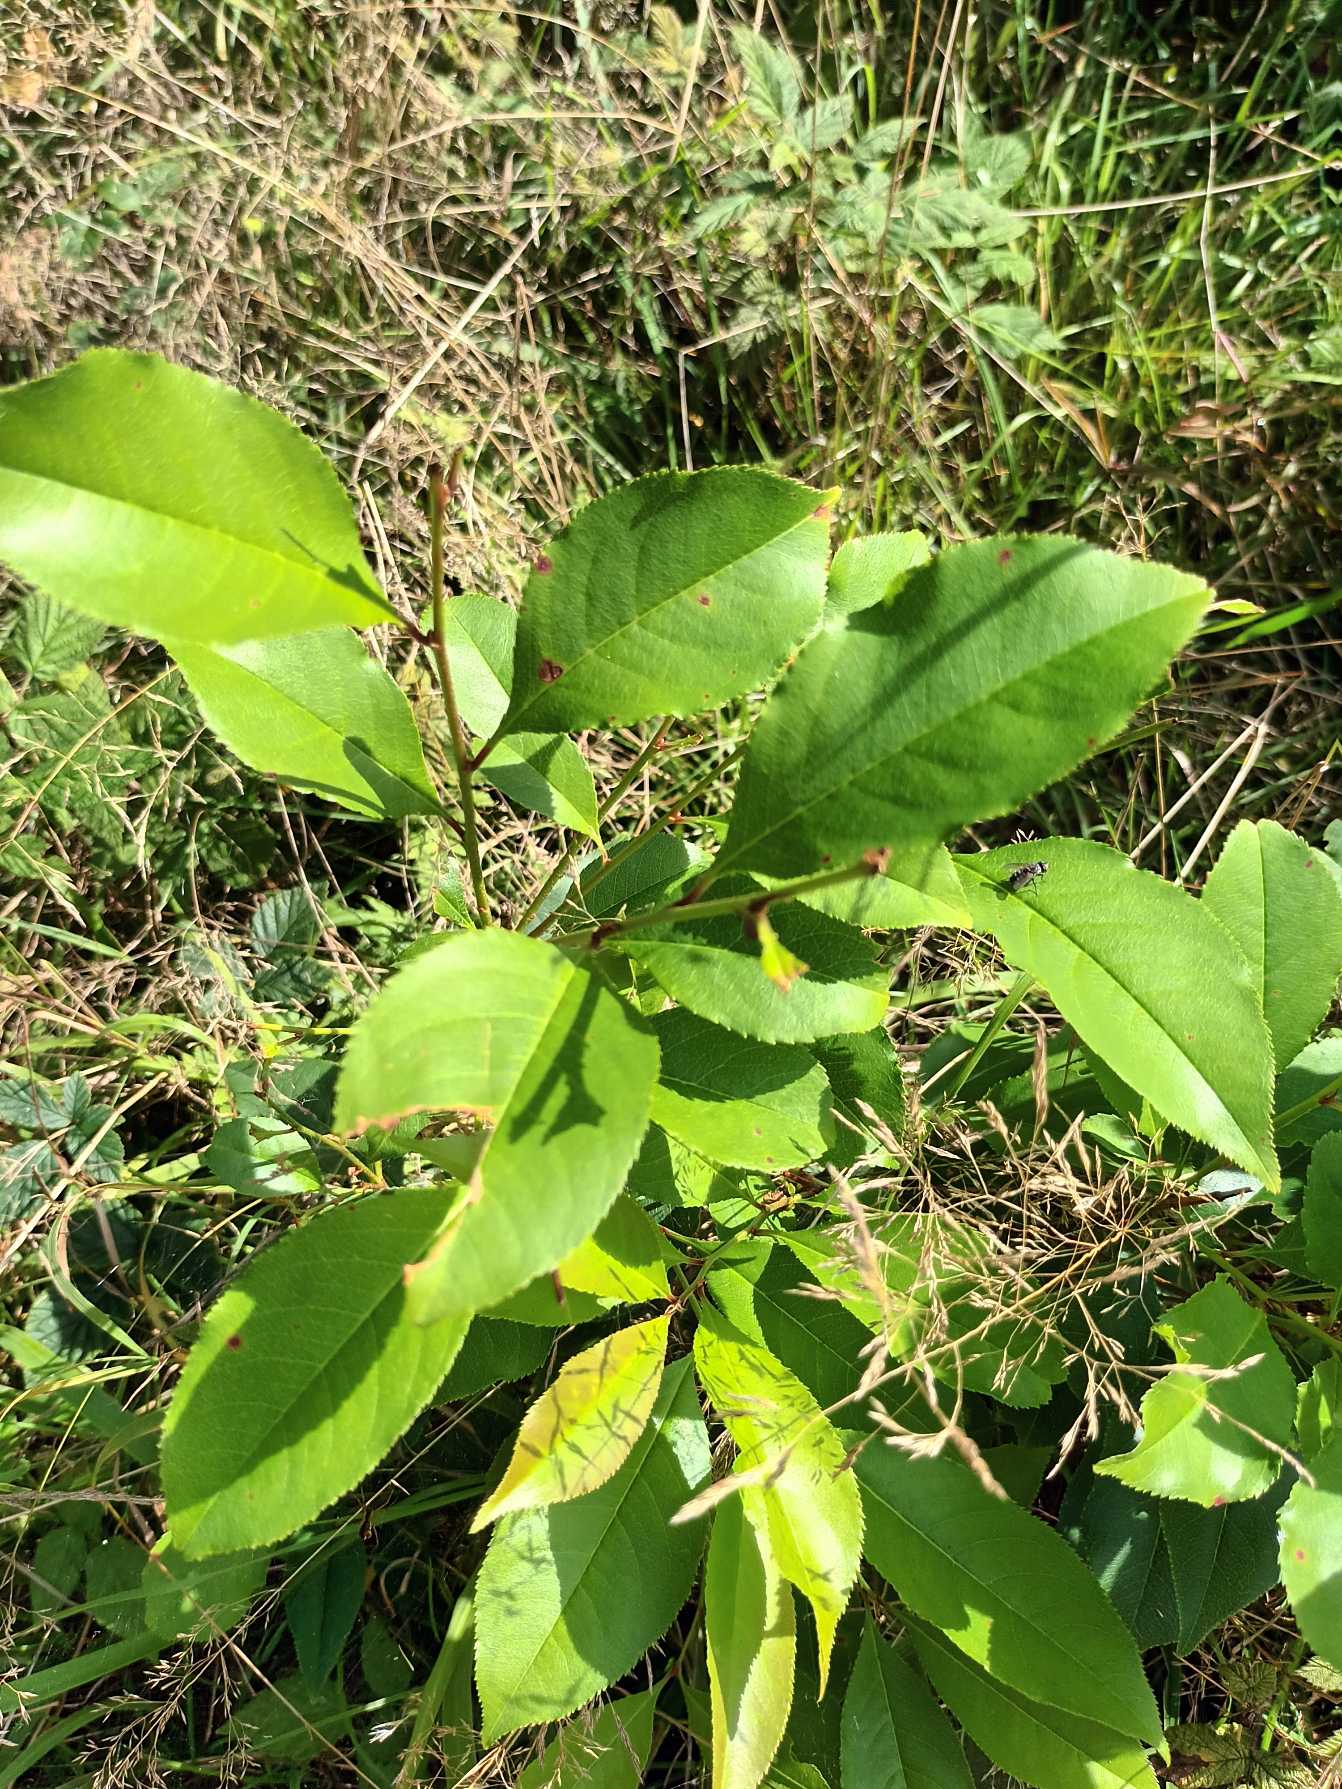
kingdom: Plantae
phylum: Tracheophyta
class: Magnoliopsida
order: Rosales
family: Rosaceae
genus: Prunus
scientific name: Prunus serotina
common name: Glansbladet hæg
